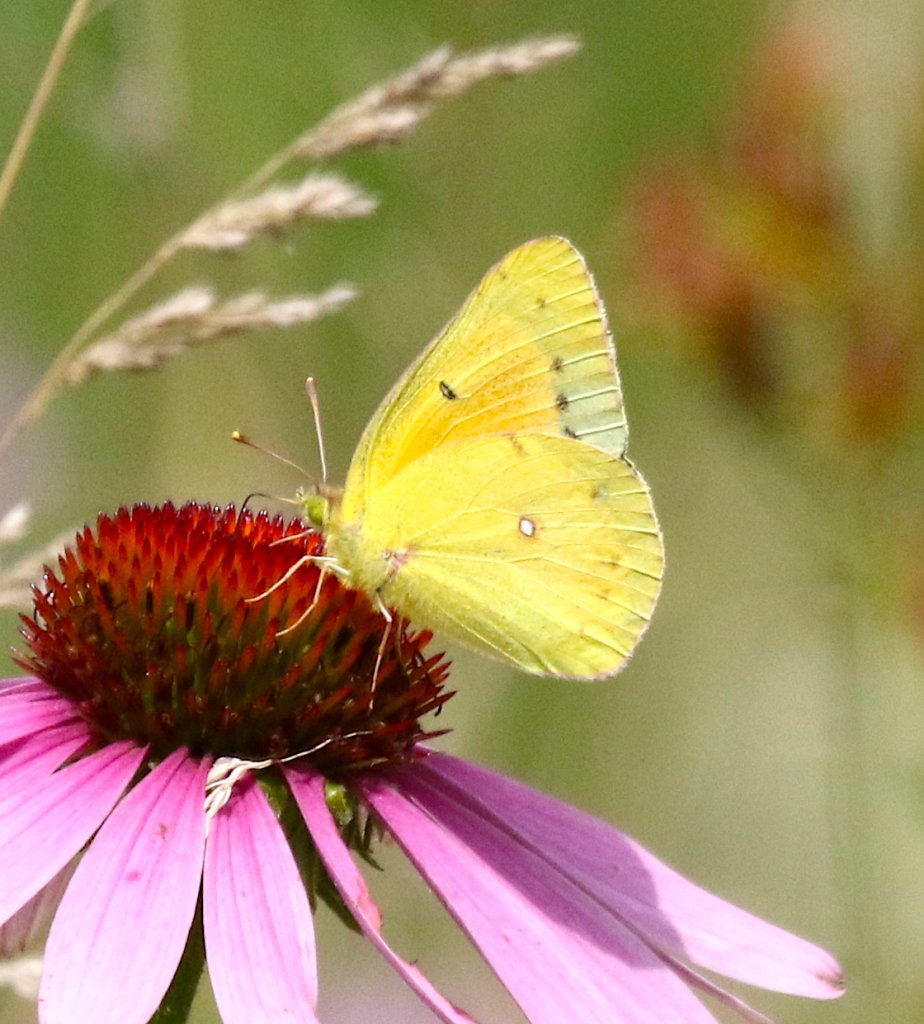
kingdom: Animalia
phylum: Arthropoda
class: Insecta
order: Lepidoptera
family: Pieridae
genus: Colias
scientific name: Colias eurytheme
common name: Orange Sulphur
